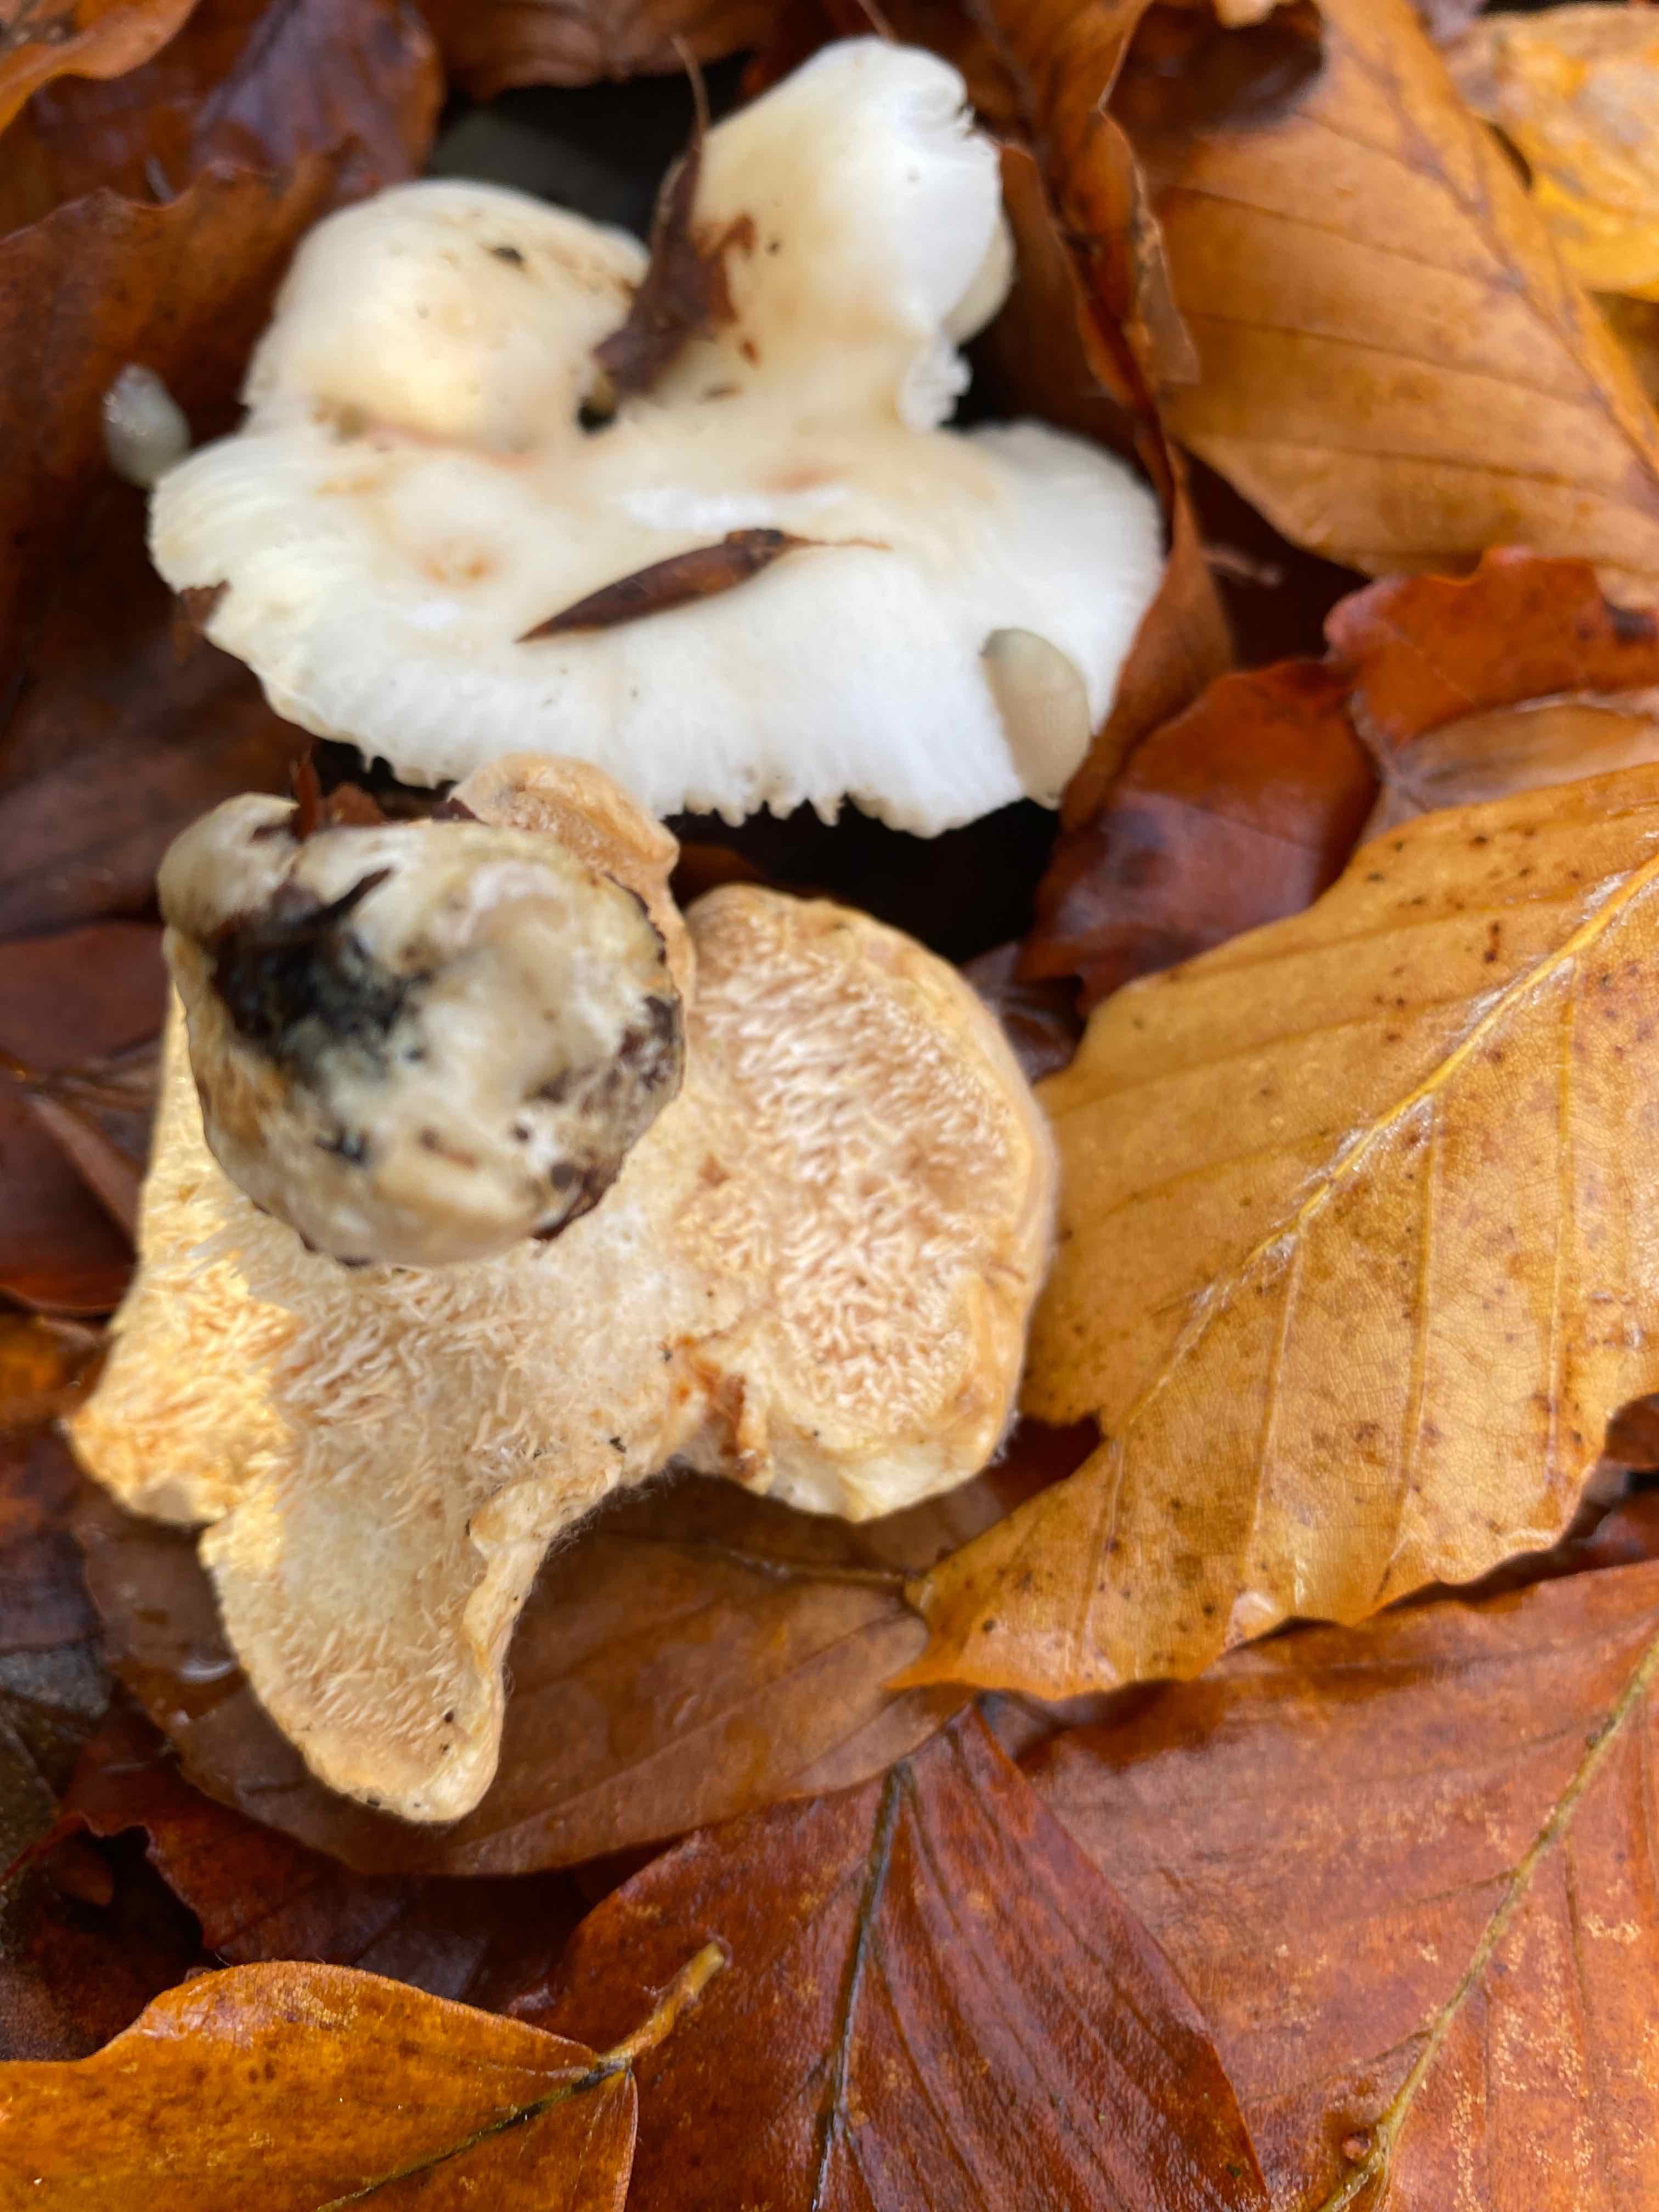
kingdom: Fungi
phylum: Basidiomycota
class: Agaricomycetes
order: Cantharellales
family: Hydnaceae
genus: Hydnum
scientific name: Hydnum
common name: pigsvamp
